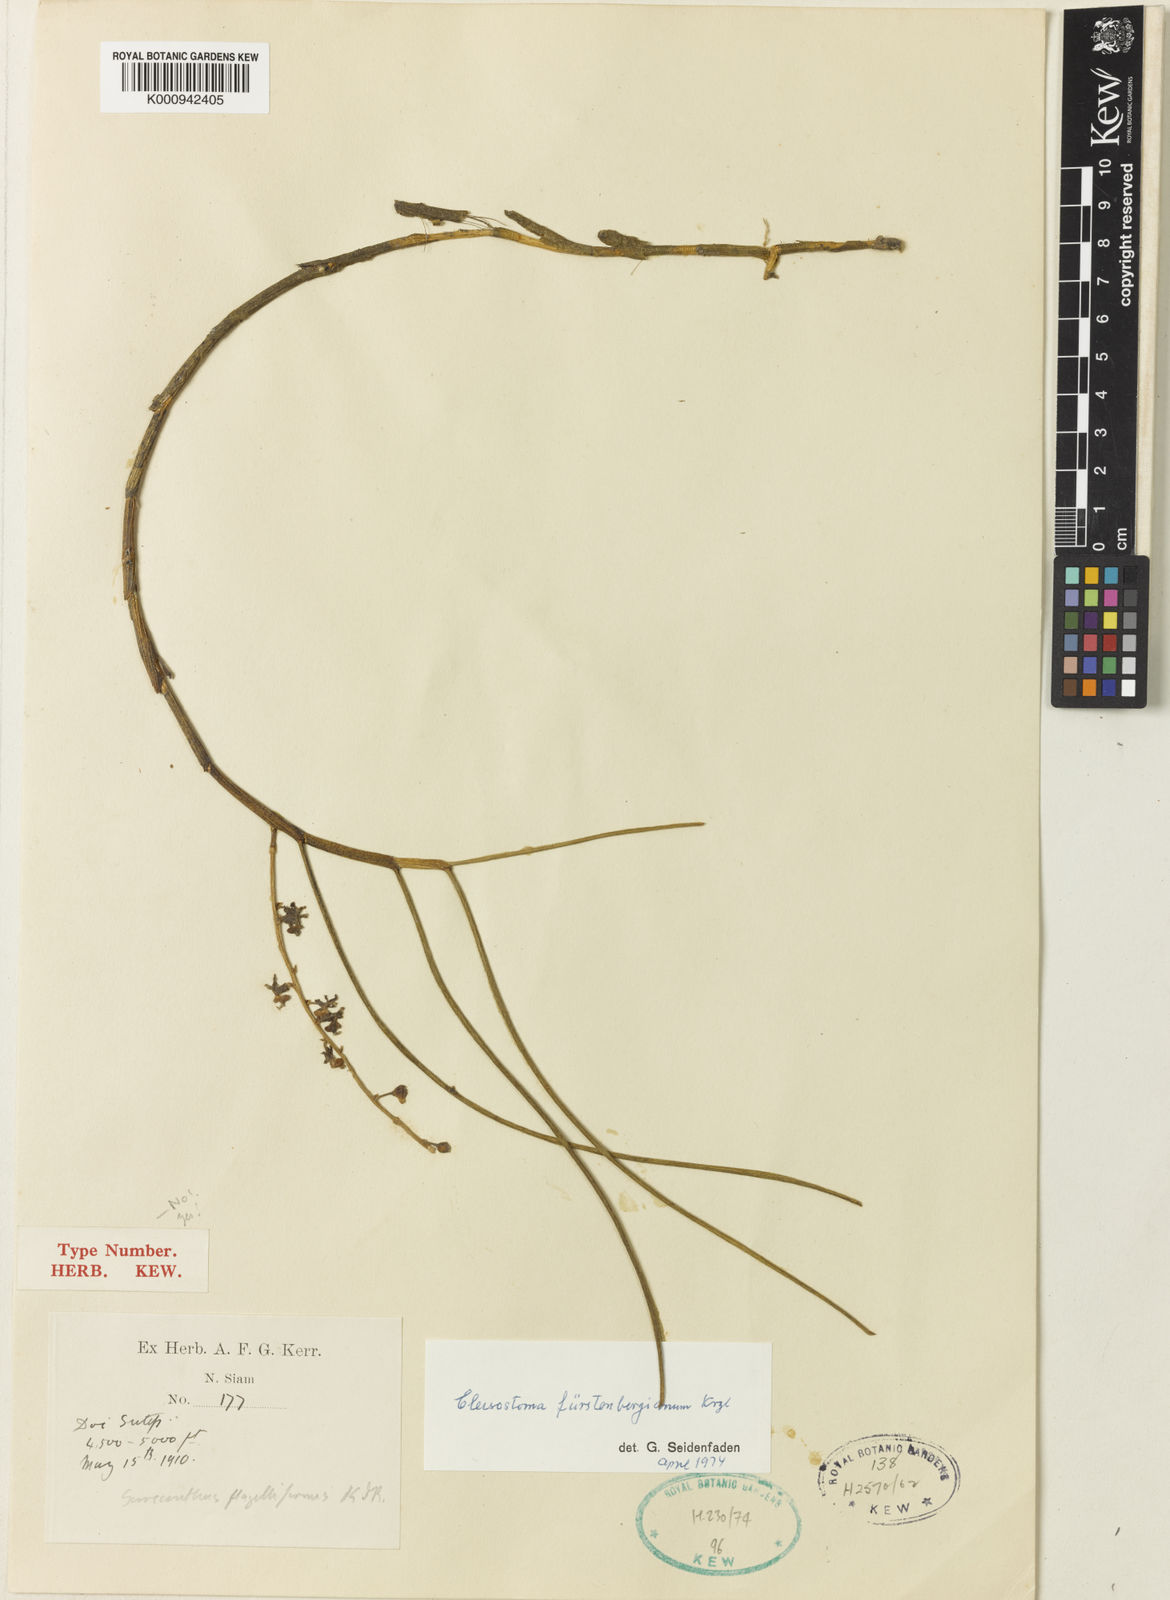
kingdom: Plantae
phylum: Tracheophyta
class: Liliopsida
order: Asparagales
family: Orchidaceae
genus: Cleisostoma
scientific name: Cleisostoma fuerstenbergianum
